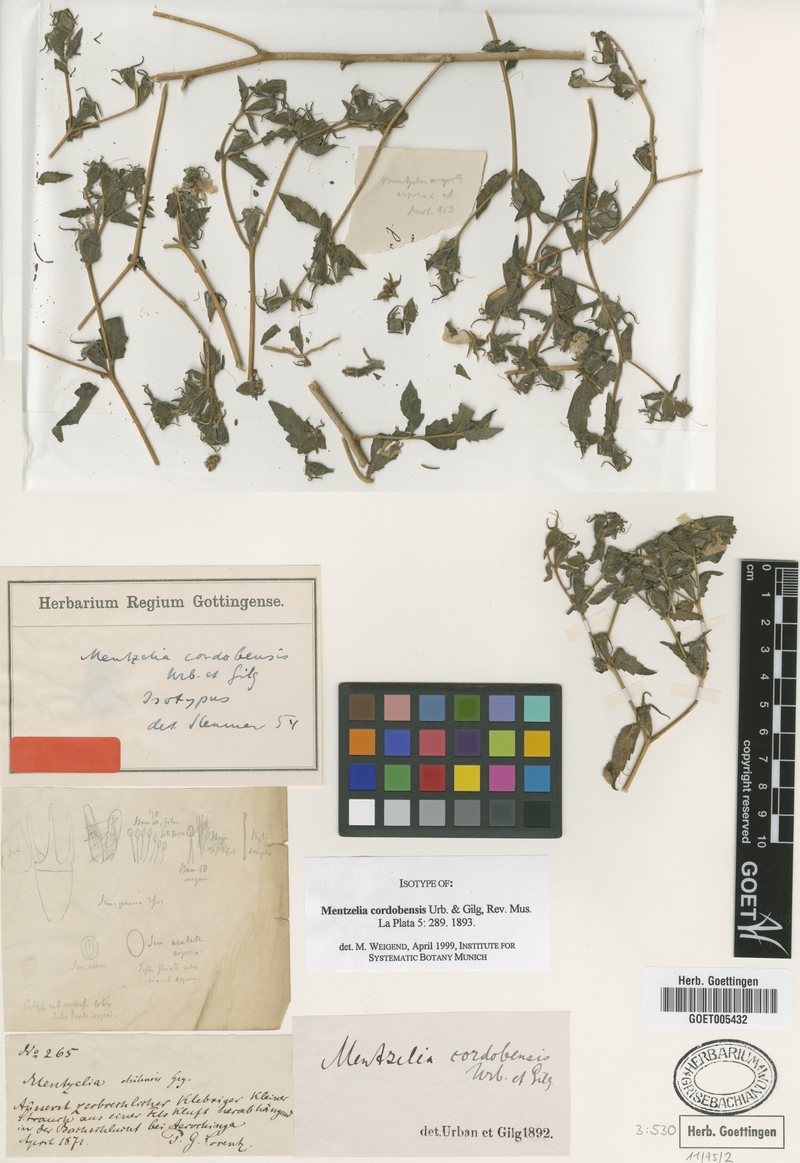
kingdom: Plantae
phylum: Tracheophyta
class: Magnoliopsida
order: Cornales
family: Loasaceae
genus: Mentzelia
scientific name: Mentzelia scabra
